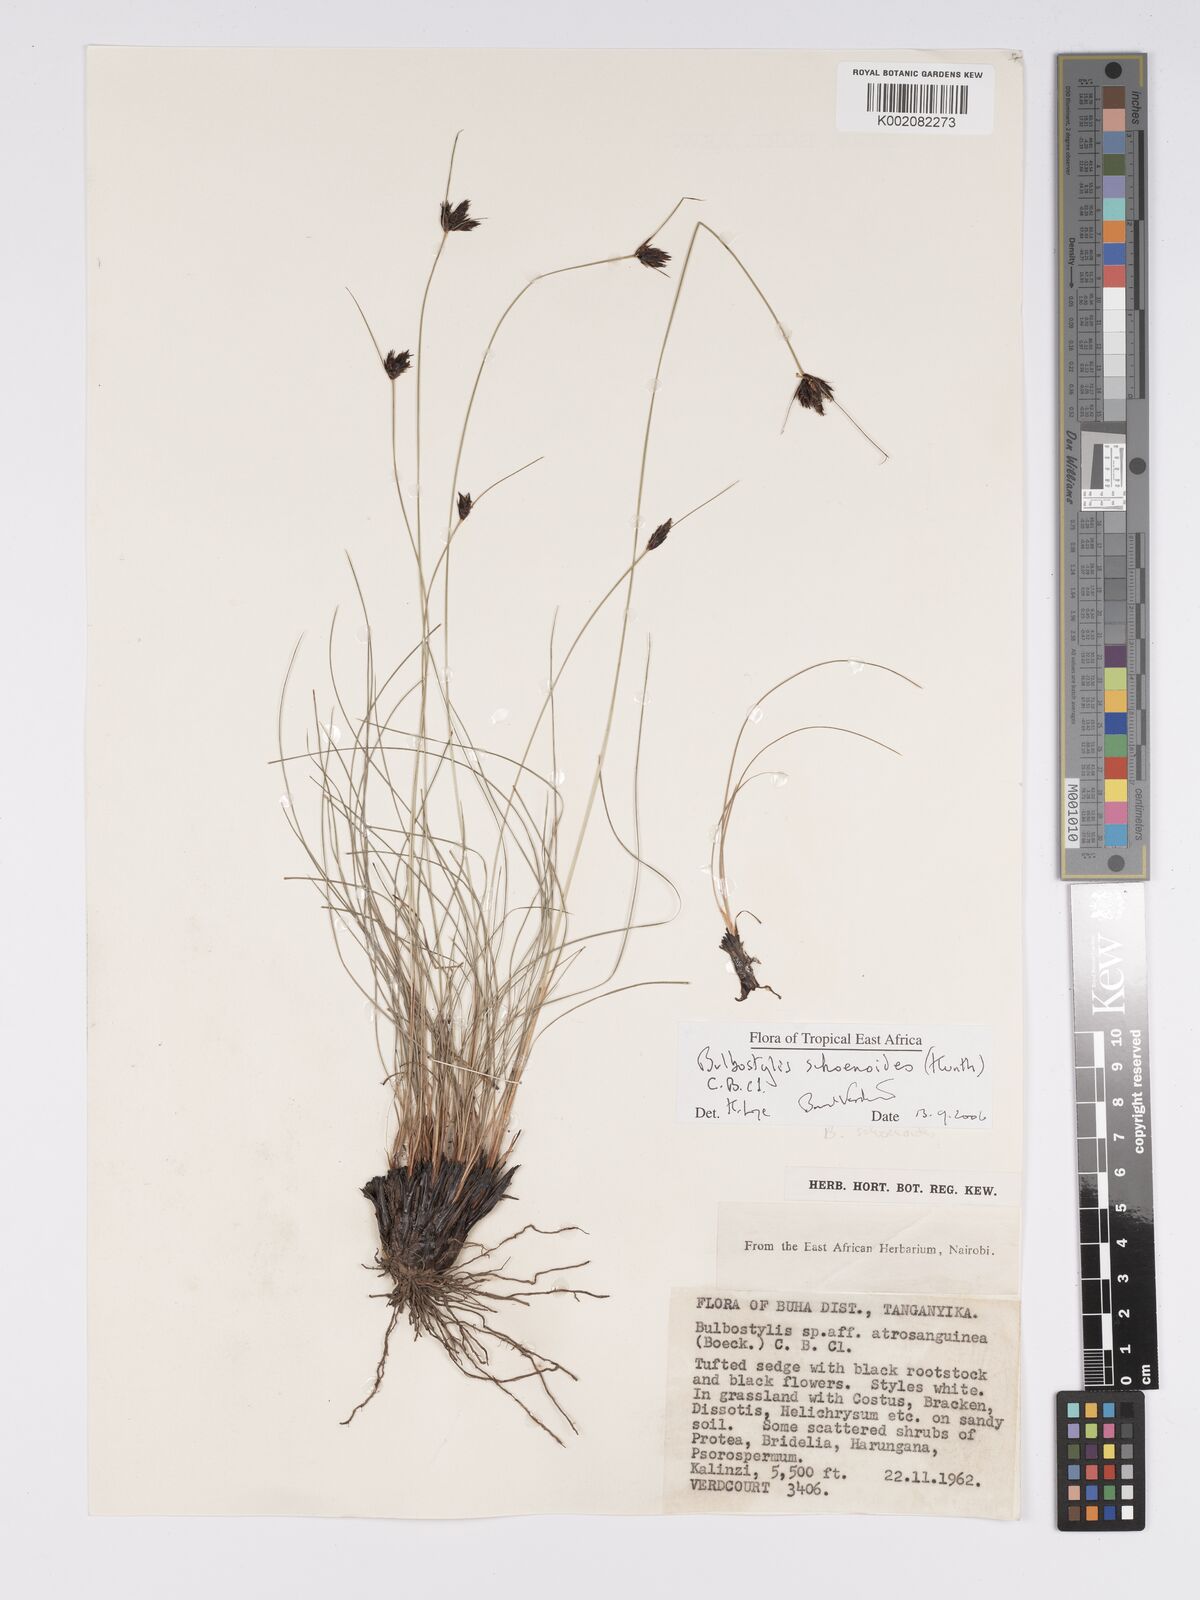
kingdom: Plantae
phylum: Tracheophyta
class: Liliopsida
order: Poales
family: Cyperaceae
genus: Bulbostylis
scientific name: Bulbostylis schoenoides
